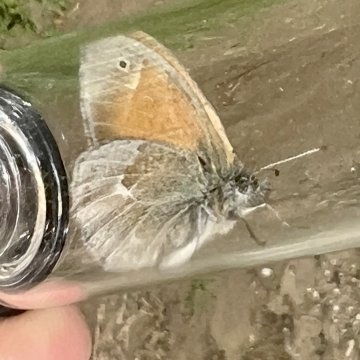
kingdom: Animalia
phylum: Arthropoda
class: Insecta
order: Lepidoptera
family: Nymphalidae
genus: Coenonympha
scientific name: Coenonympha tullia
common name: Large Heath
